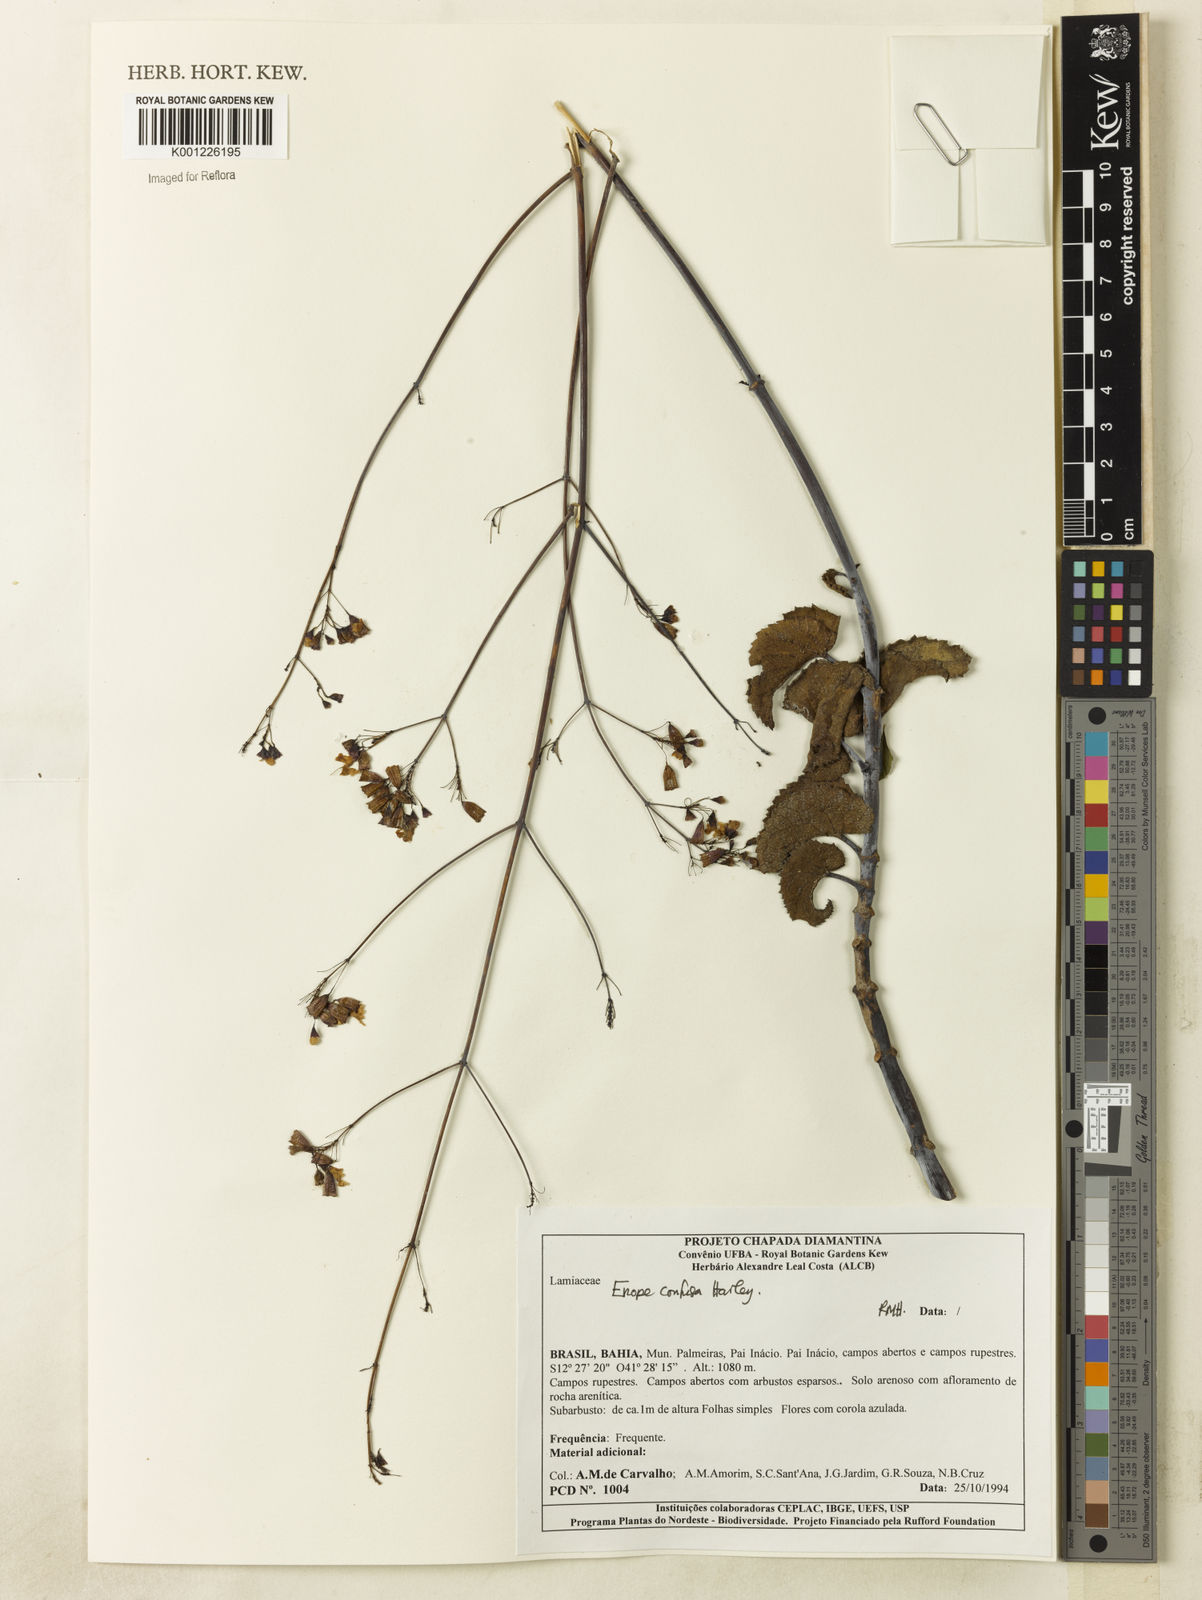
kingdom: Plantae
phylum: Tracheophyta
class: Magnoliopsida
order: Lamiales
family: Lamiaceae
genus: Eriope
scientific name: Eriope confusa
